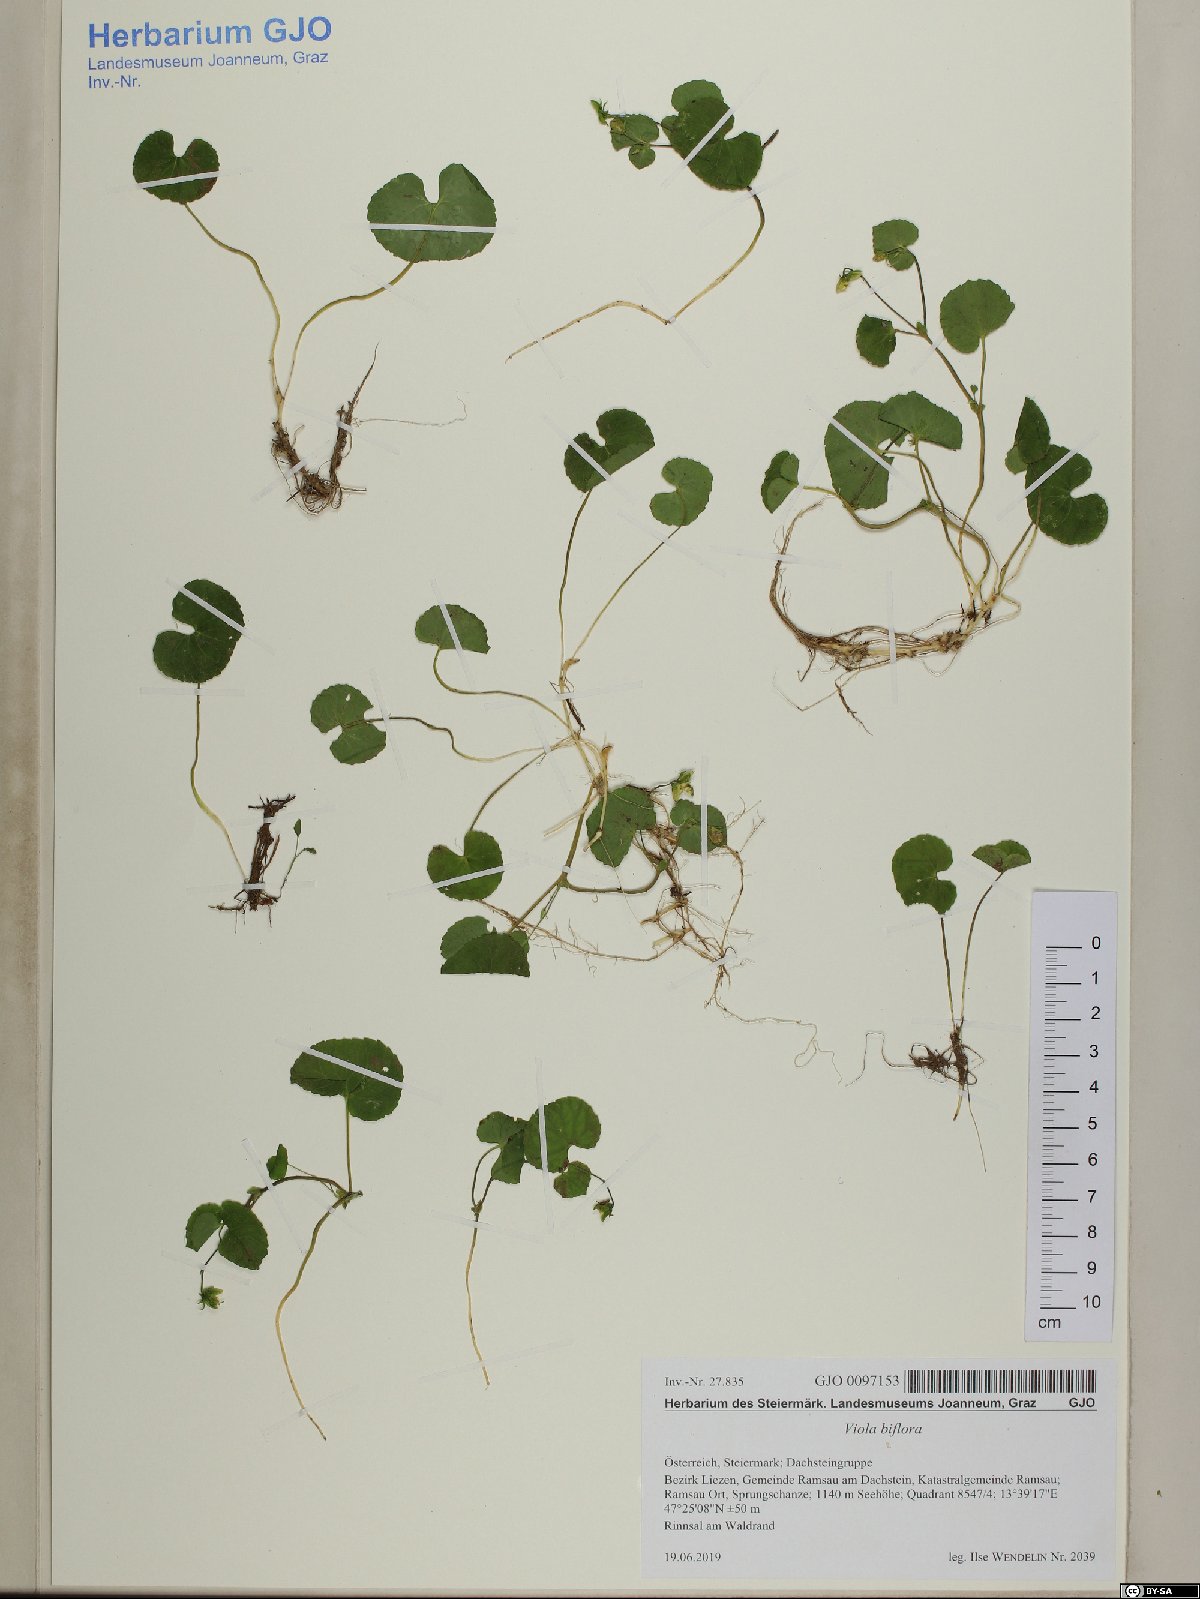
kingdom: Plantae
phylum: Tracheophyta
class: Magnoliopsida
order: Malpighiales
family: Violaceae
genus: Viola
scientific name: Viola biflora
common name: Alpine yellow violet
